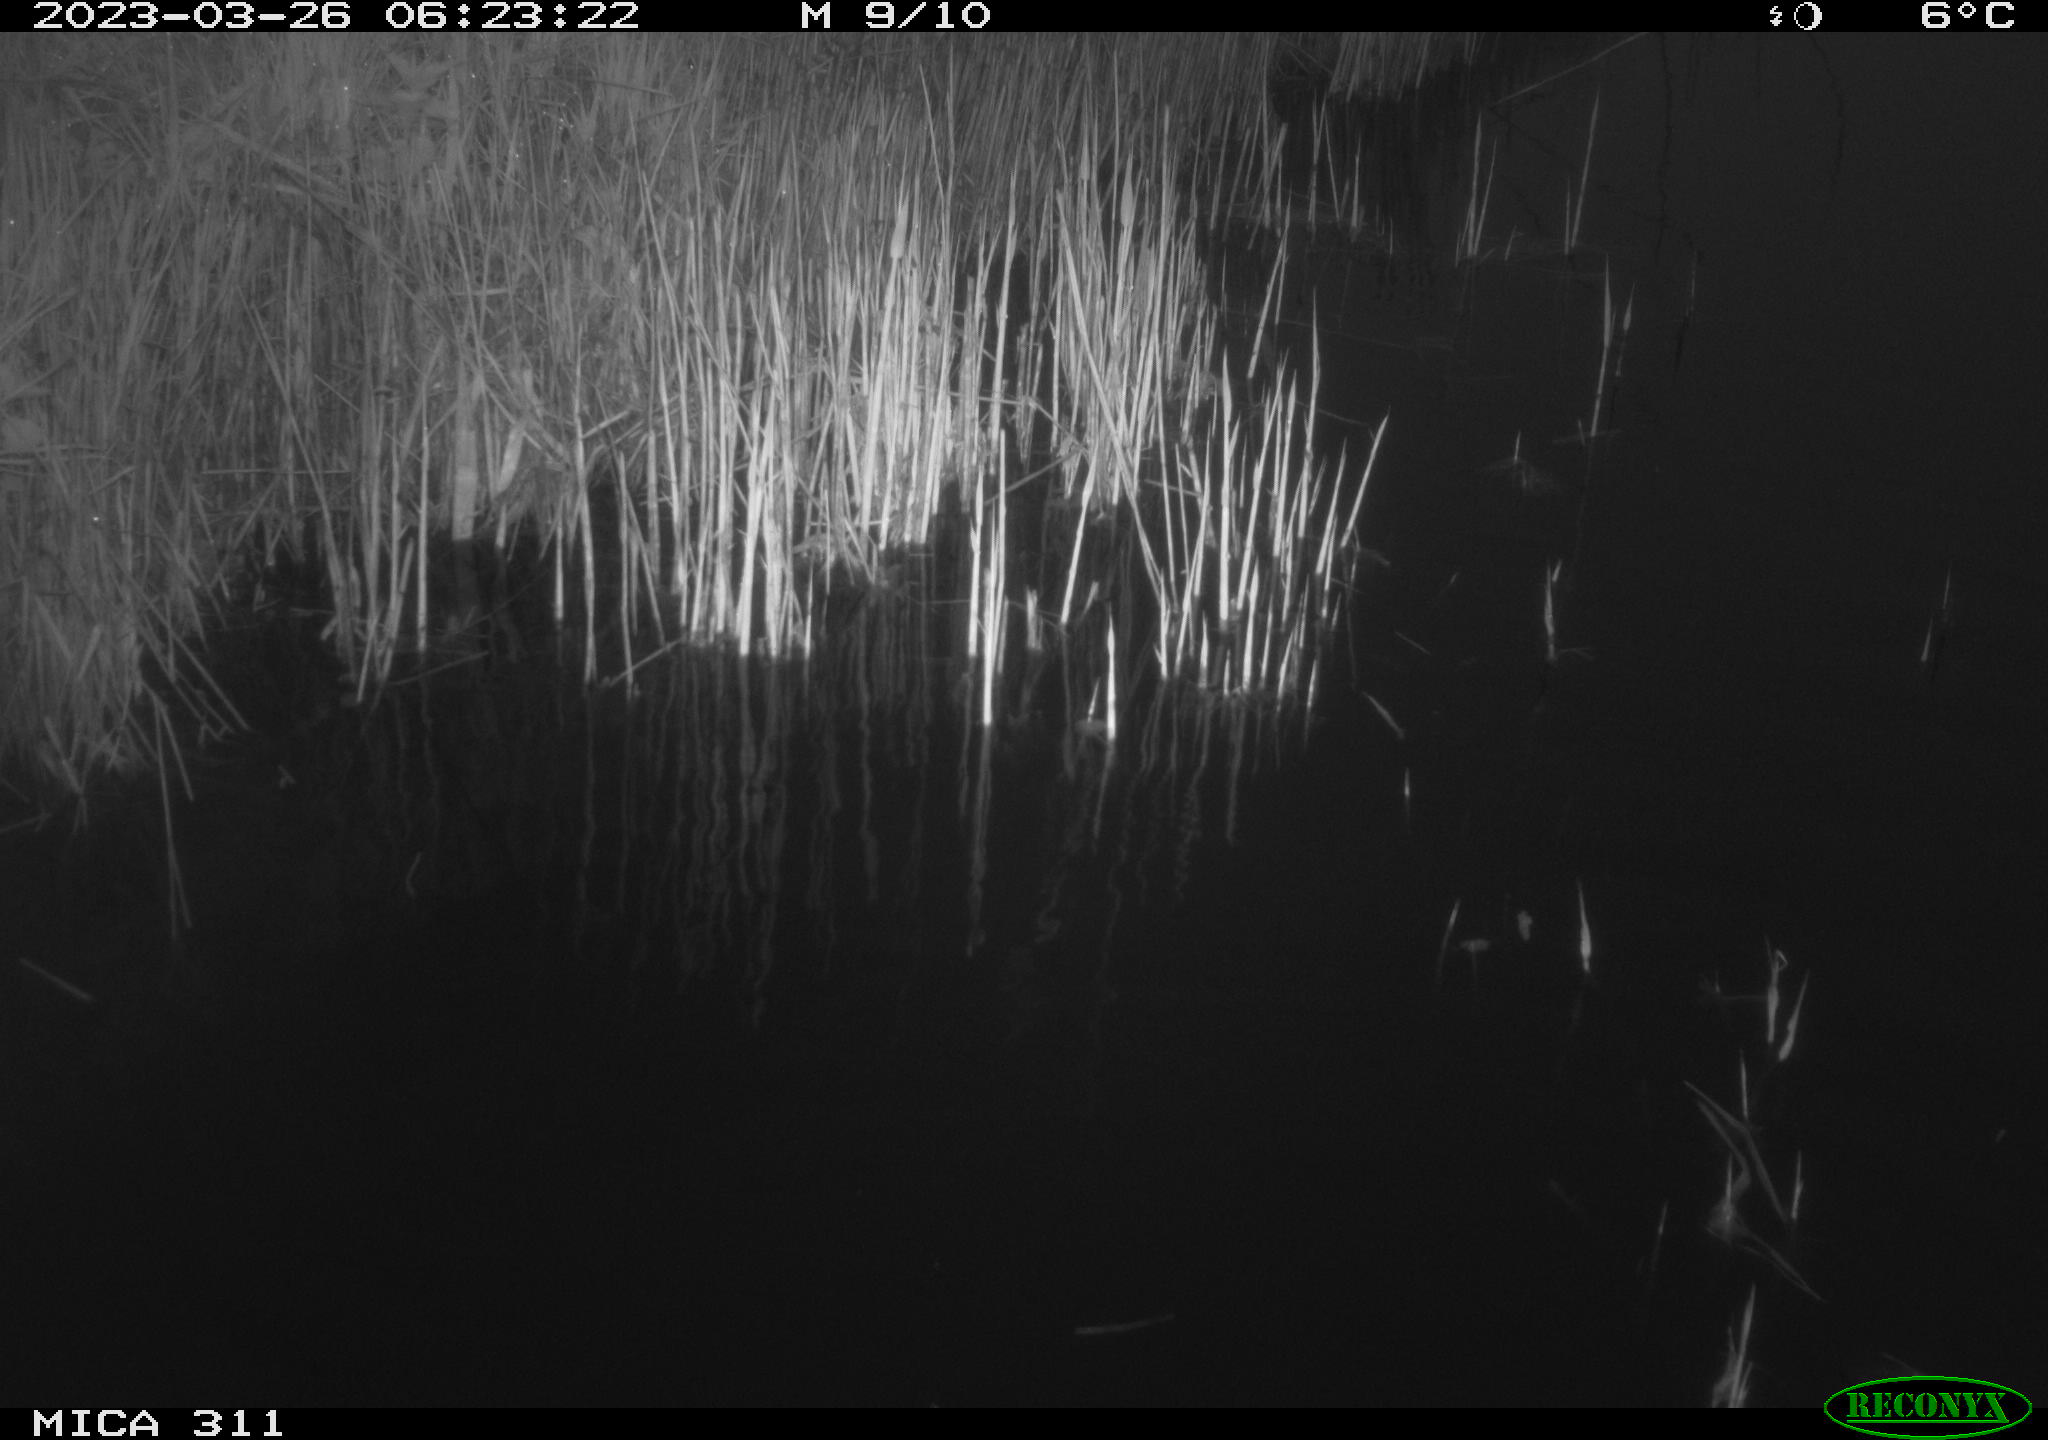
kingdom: Animalia
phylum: Chordata
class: Aves
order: Gruiformes
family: Rallidae
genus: Gallinula
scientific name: Gallinula chloropus
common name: Common moorhen
